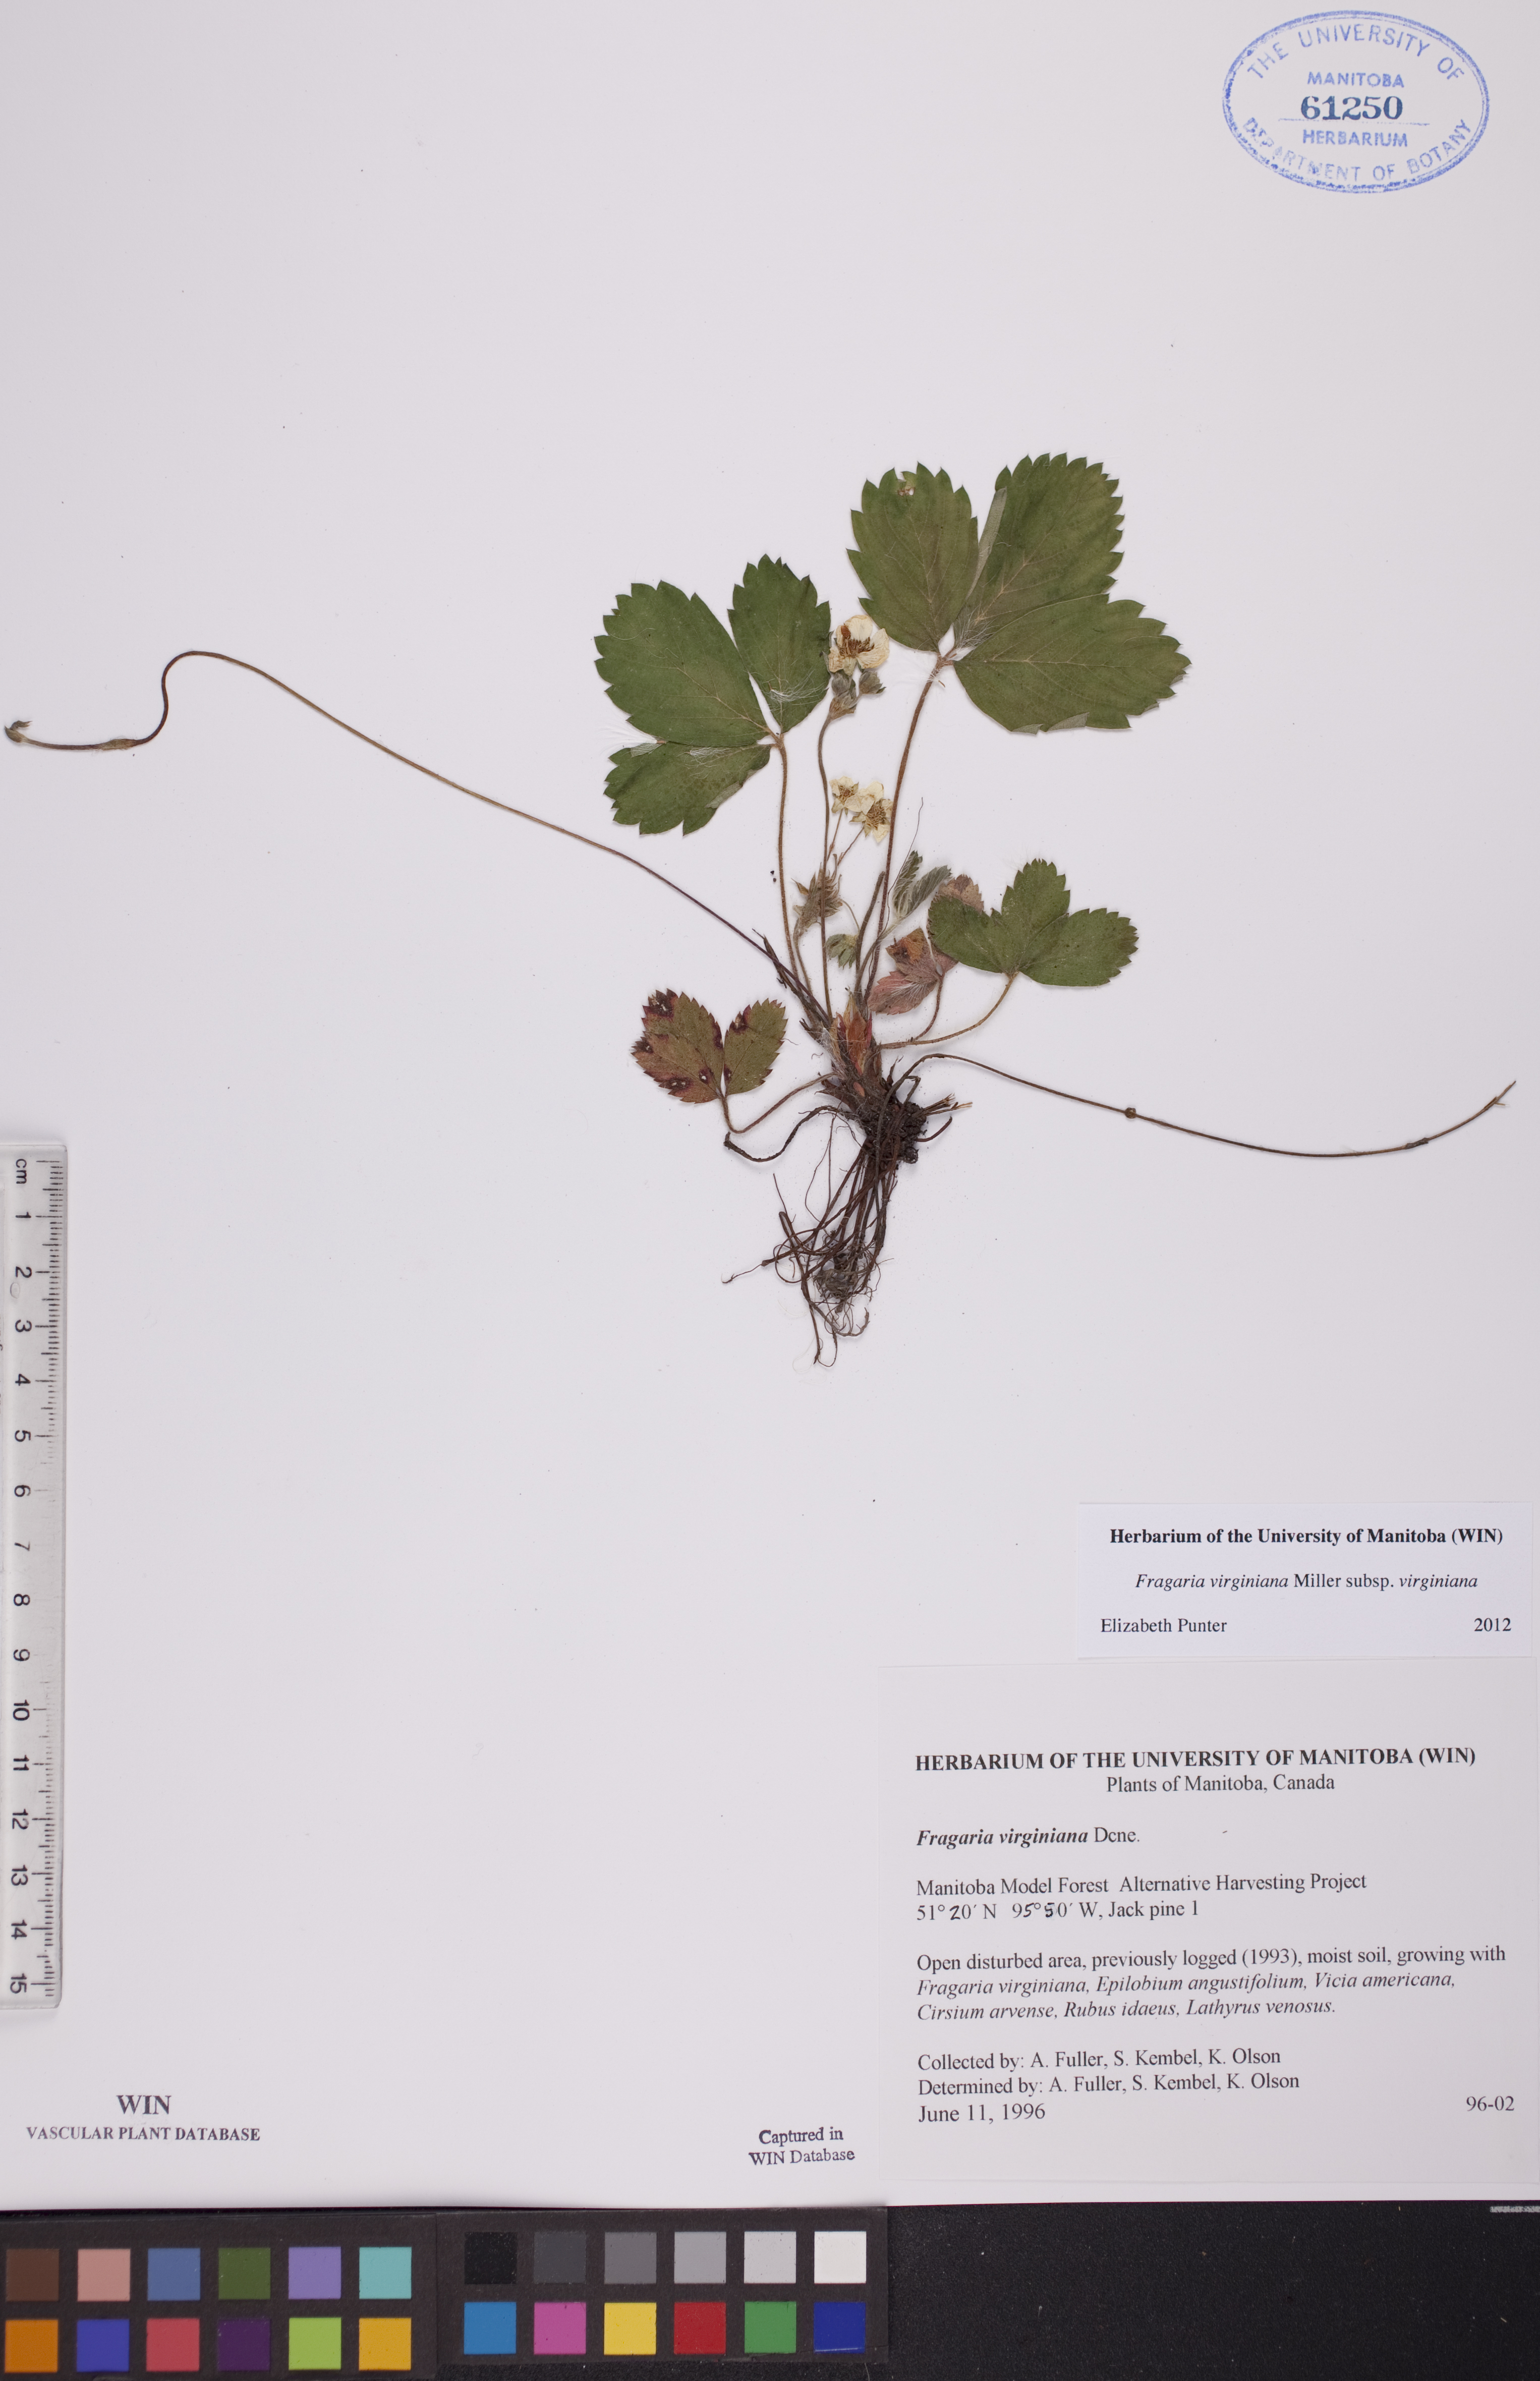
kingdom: Plantae
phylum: Tracheophyta
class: Magnoliopsida
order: Rosales
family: Rosaceae
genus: Fragaria
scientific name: Fragaria virginiana
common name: Thickleaved wild strawberry
